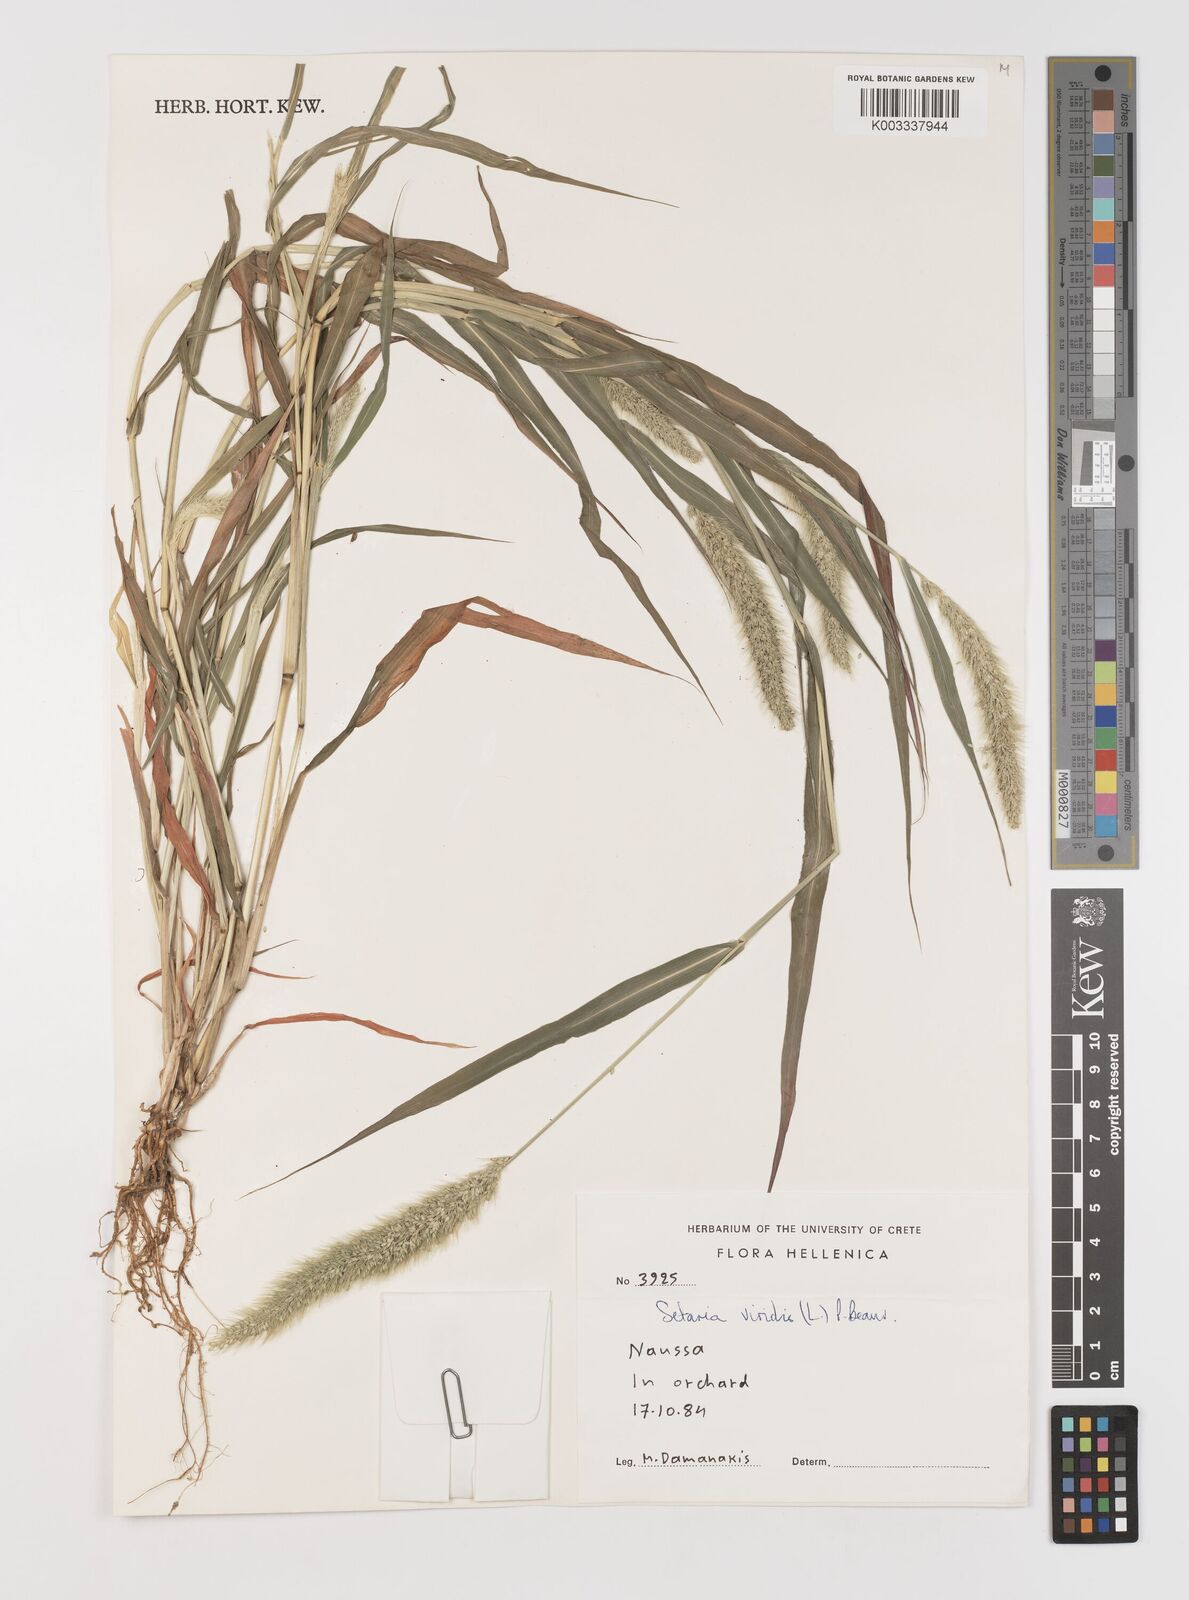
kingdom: Plantae
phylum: Tracheophyta
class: Liliopsida
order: Poales
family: Poaceae
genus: Setaria
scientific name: Setaria viridis
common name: Green bristlegrass
